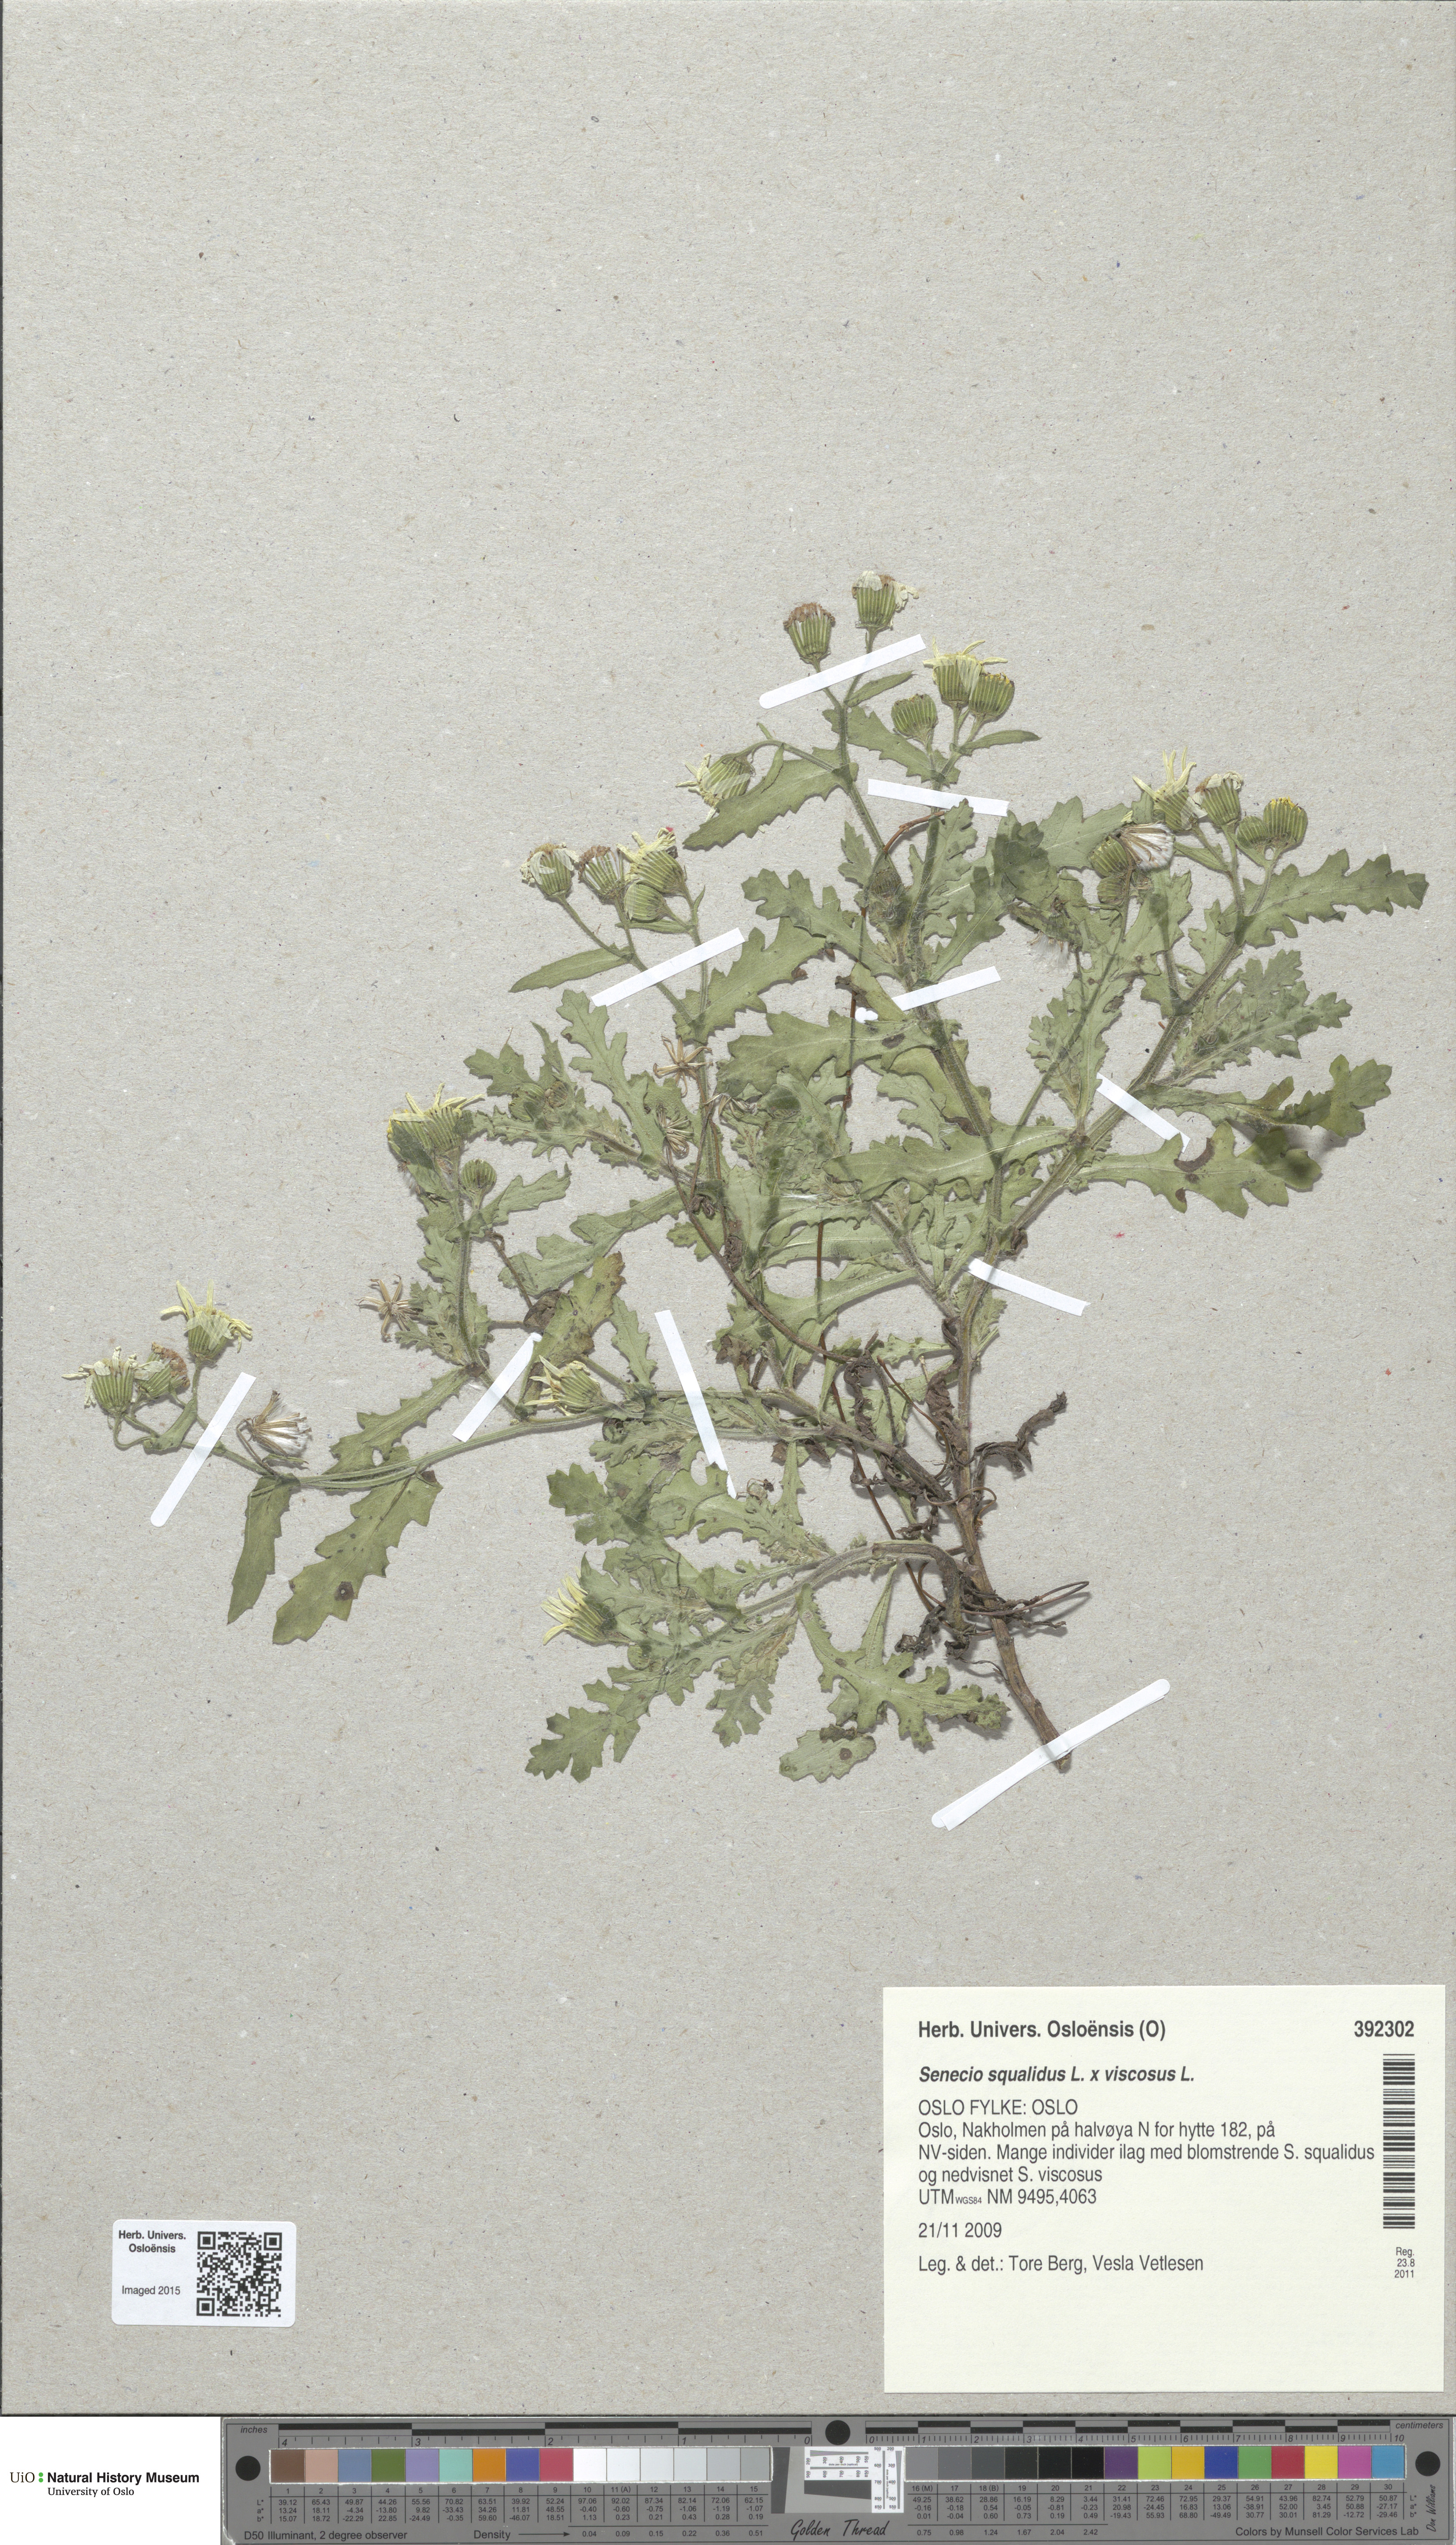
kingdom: Plantae
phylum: Tracheophyta
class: Magnoliopsida
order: Asterales
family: Asteraceae
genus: Senecio
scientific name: Senecio
